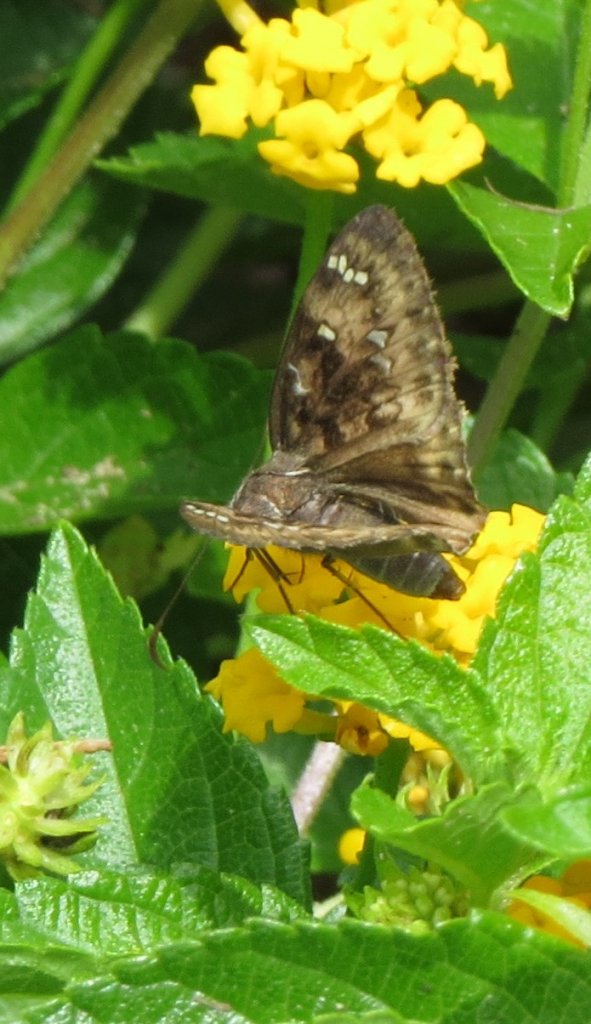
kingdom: Animalia
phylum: Arthropoda
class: Insecta
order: Lepidoptera
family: Hesperiidae
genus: Gesta
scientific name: Gesta
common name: Horace's Duskywing
